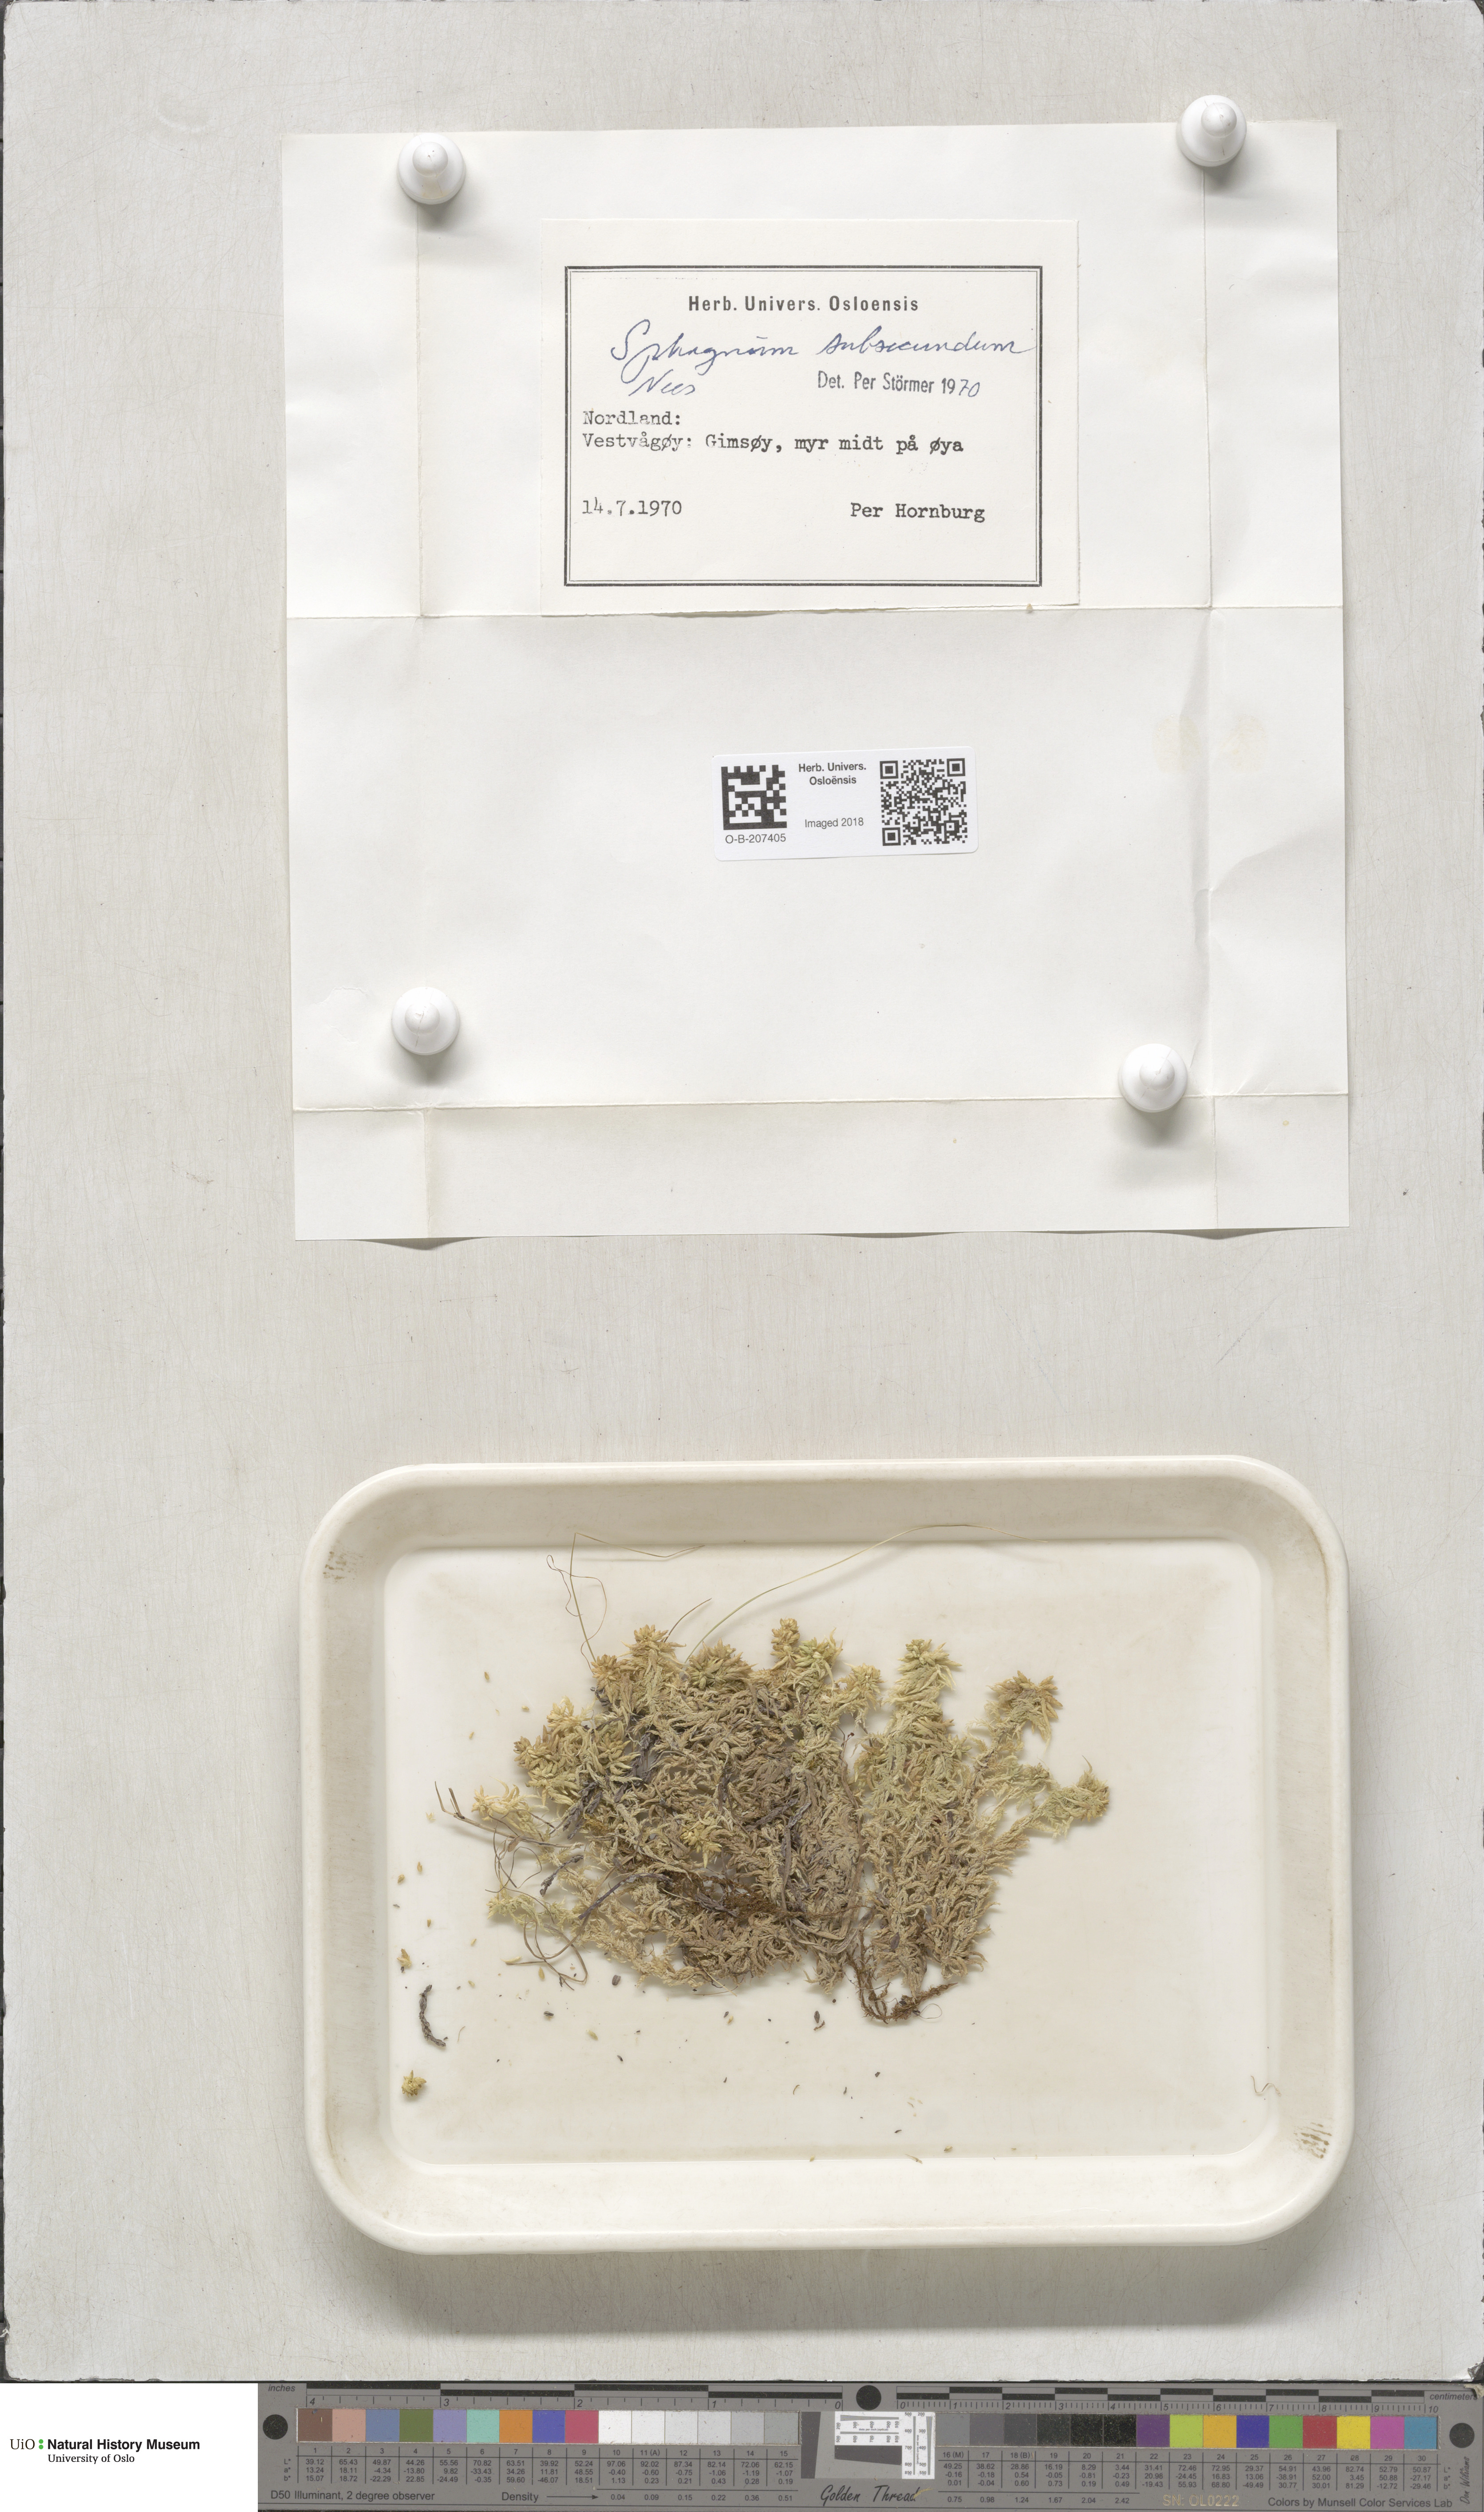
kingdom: Plantae
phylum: Bryophyta
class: Sphagnopsida
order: Sphagnales
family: Sphagnaceae
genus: Sphagnum
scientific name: Sphagnum subsecundum
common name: Orange peat moss
